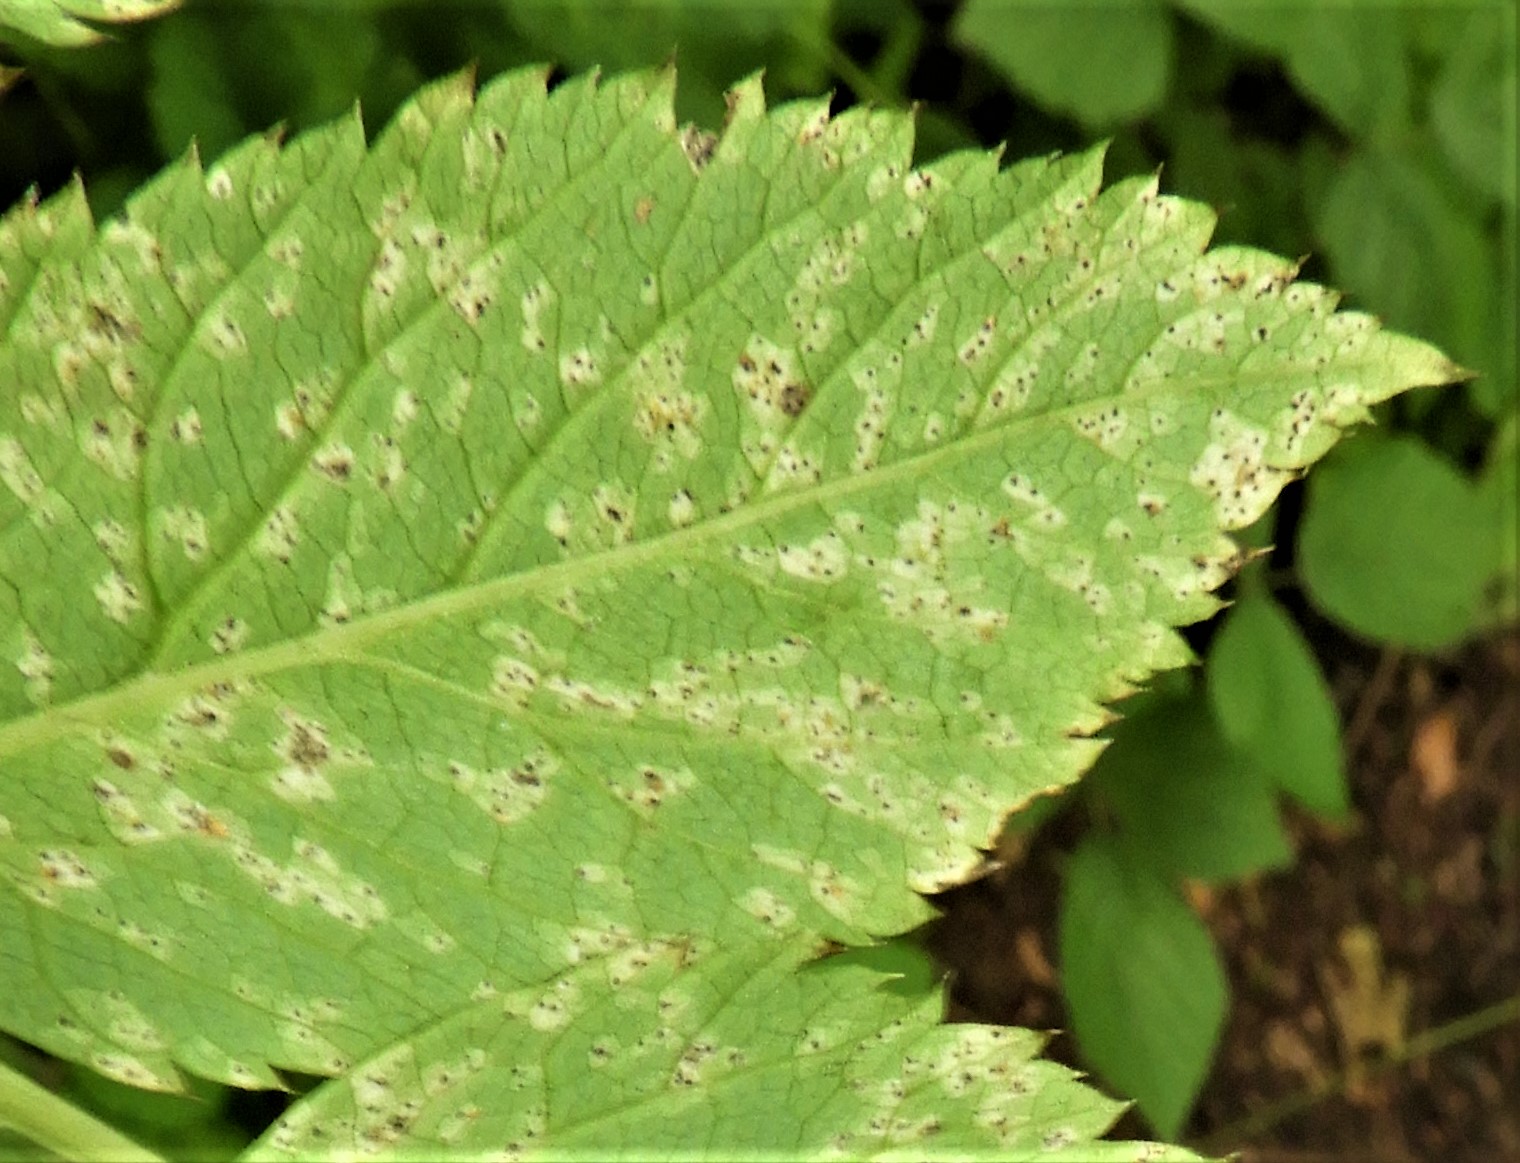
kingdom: Fungi
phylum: Ascomycota
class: Dothideomycetes
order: Mycosphaerellales
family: Mycosphaerellaceae
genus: Mycosphaerella
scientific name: Mycosphaerella podagrariae
